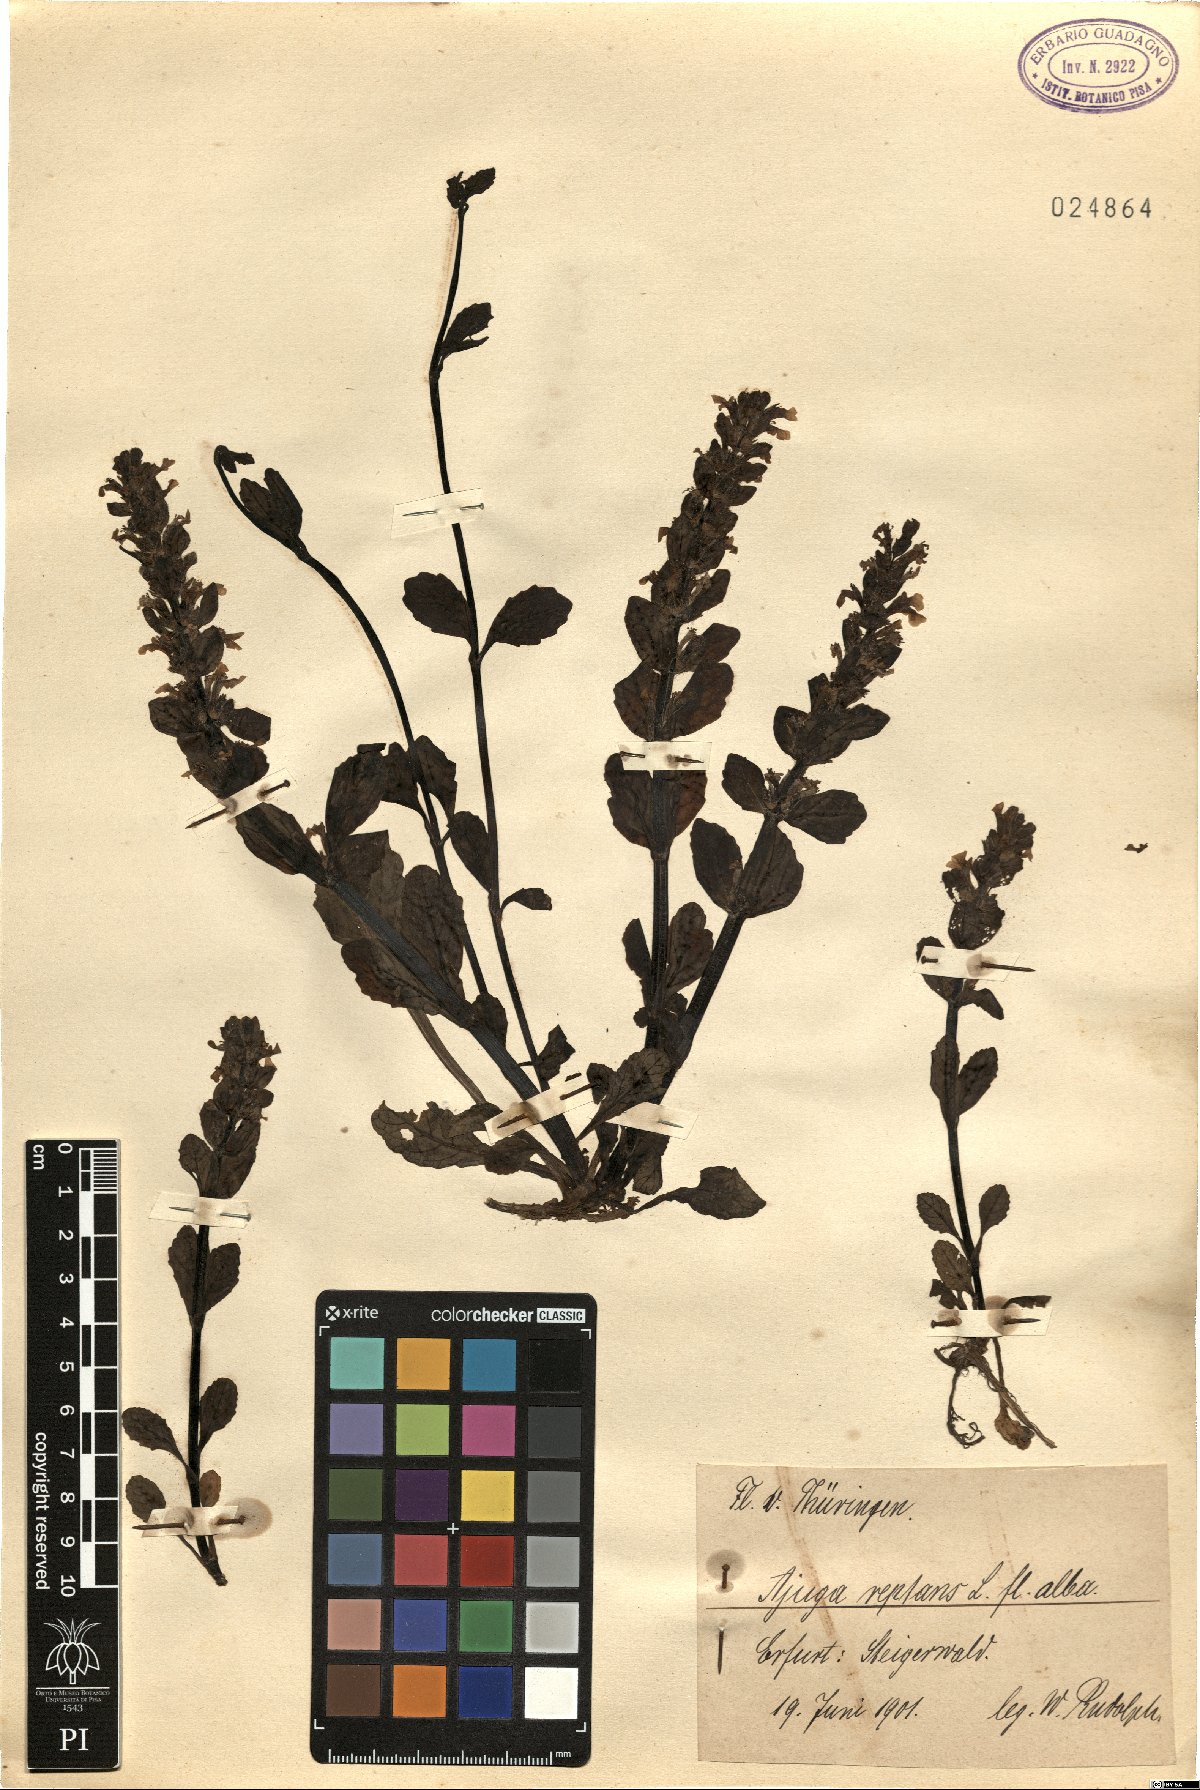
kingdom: Plantae
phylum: Tracheophyta
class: Magnoliopsida
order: Lamiales
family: Lamiaceae
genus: Ajuga
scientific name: Ajuga reptans
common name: Bugle
